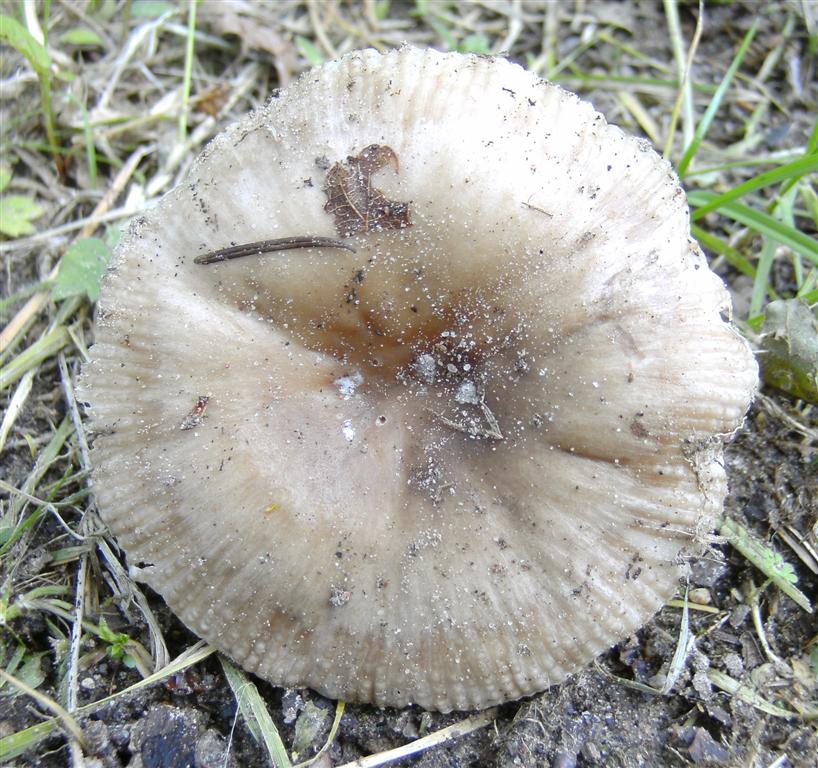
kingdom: Fungi
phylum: Basidiomycota
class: Agaricomycetes
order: Russulales
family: Russulaceae
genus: Russula
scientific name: Russula amoenolens
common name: skarp kam-skørhat
